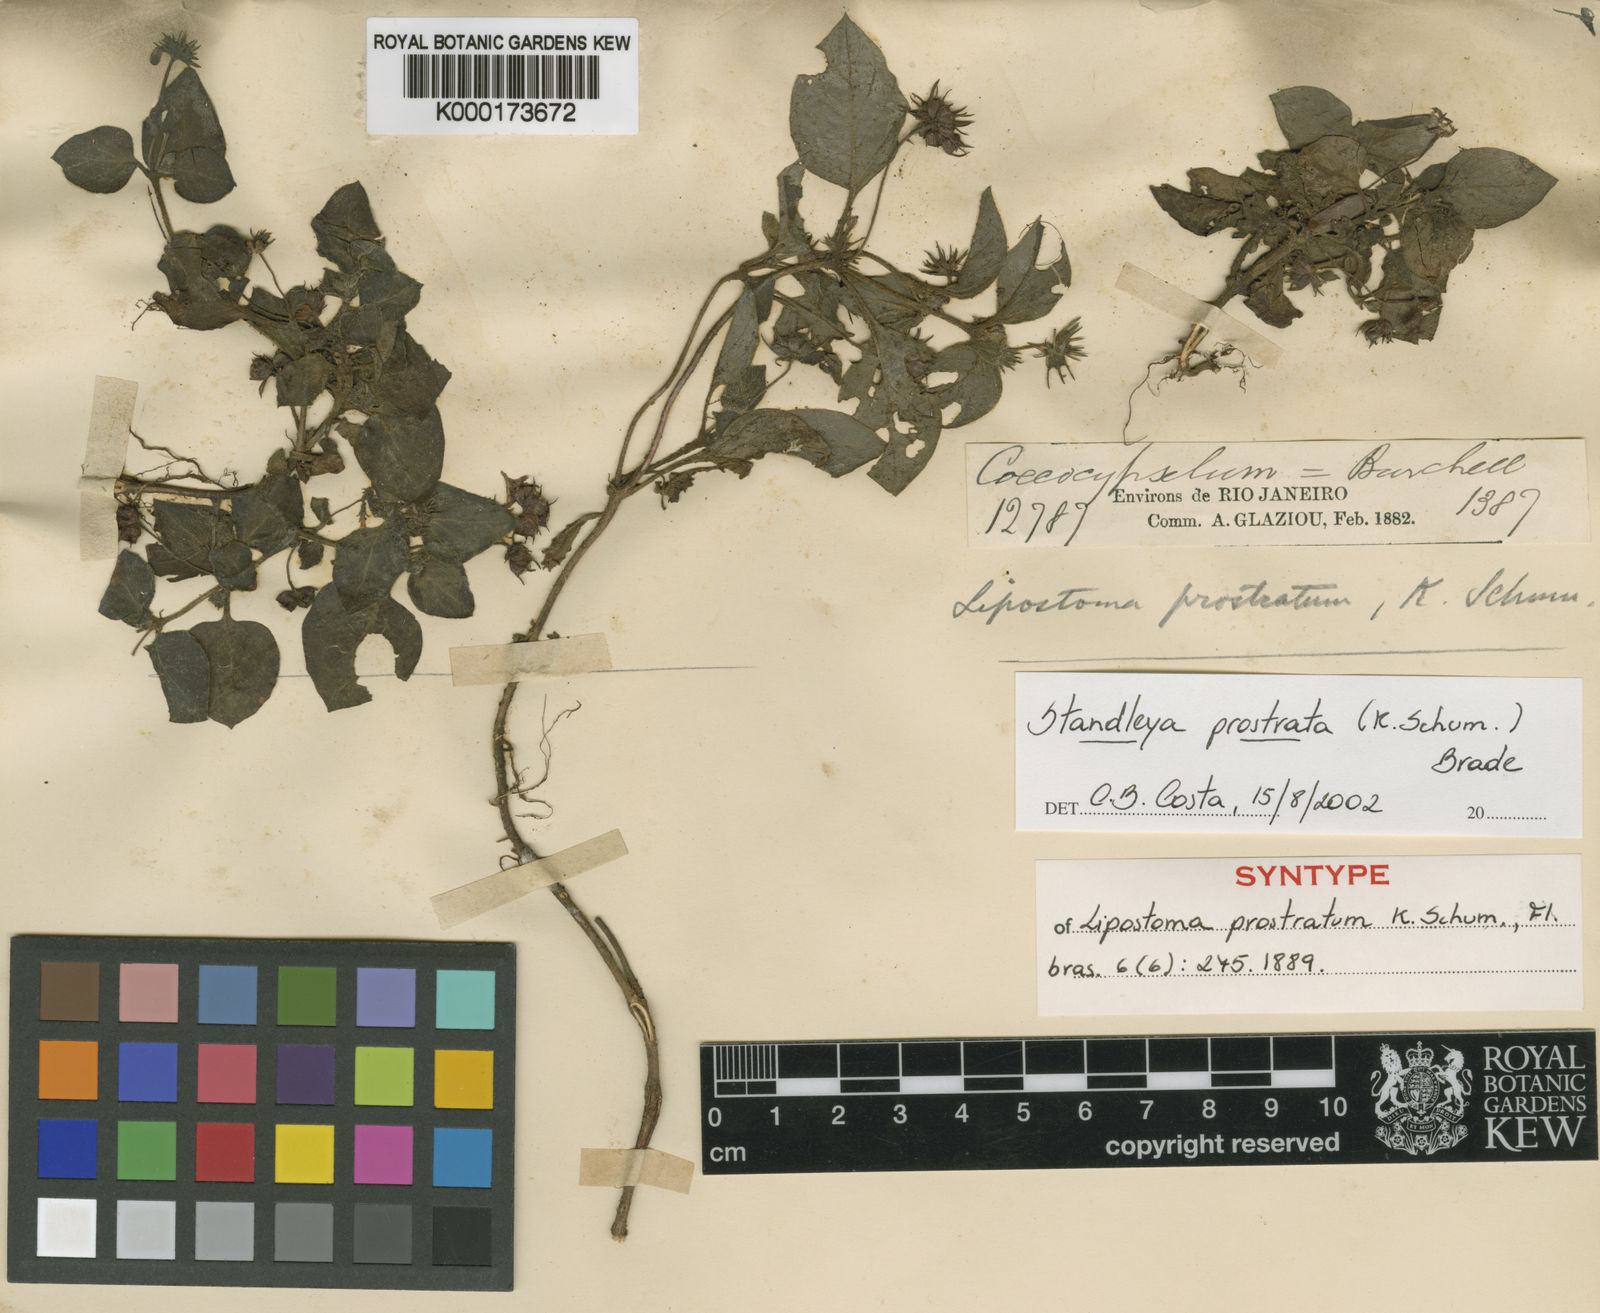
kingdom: Plantae
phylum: Tracheophyta
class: Magnoliopsida
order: Gentianales
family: Rubiaceae
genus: Standleya
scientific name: Standleya prostrata
